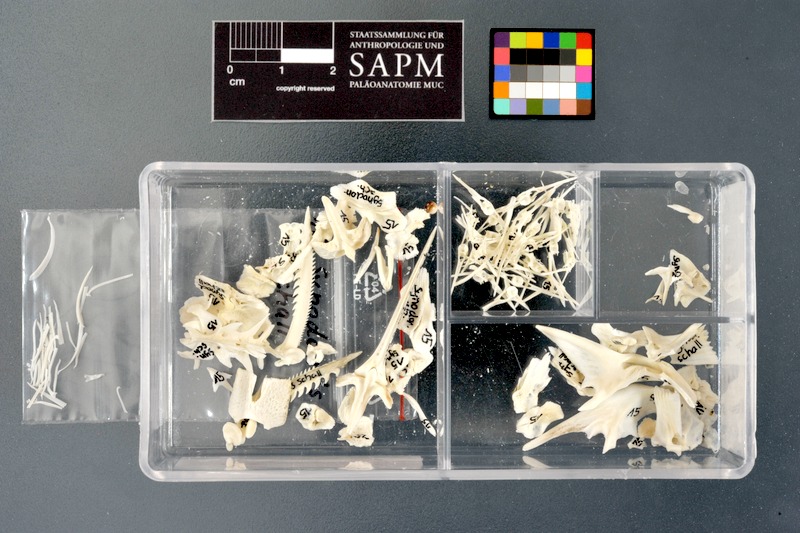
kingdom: Animalia
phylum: Chordata
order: Siluriformes
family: Mochokidae
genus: Synodontis
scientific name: Synodontis schall
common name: Wahrindi
